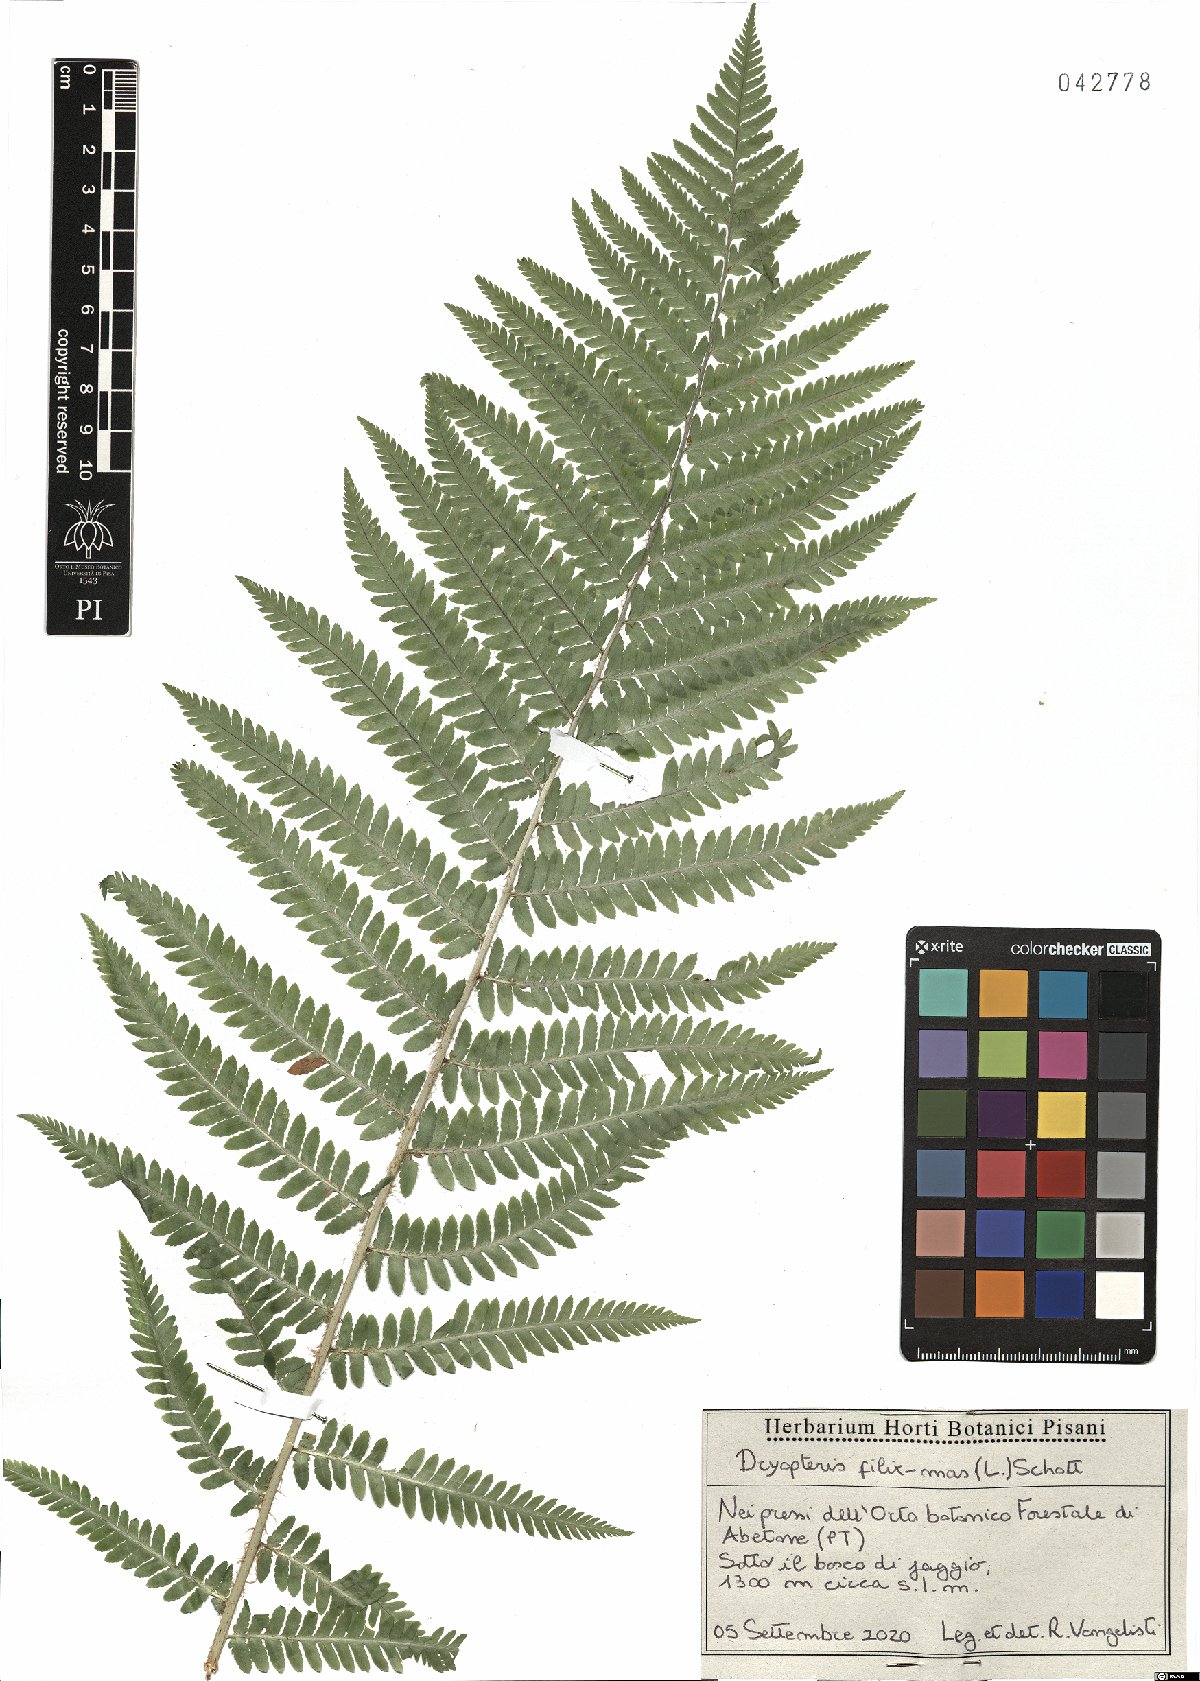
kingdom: Plantae
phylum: Tracheophyta
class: Polypodiopsida
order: Polypodiales
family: Dryopteridaceae
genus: Dryopteris
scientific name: Dryopteris filix-mas
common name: Male fern
